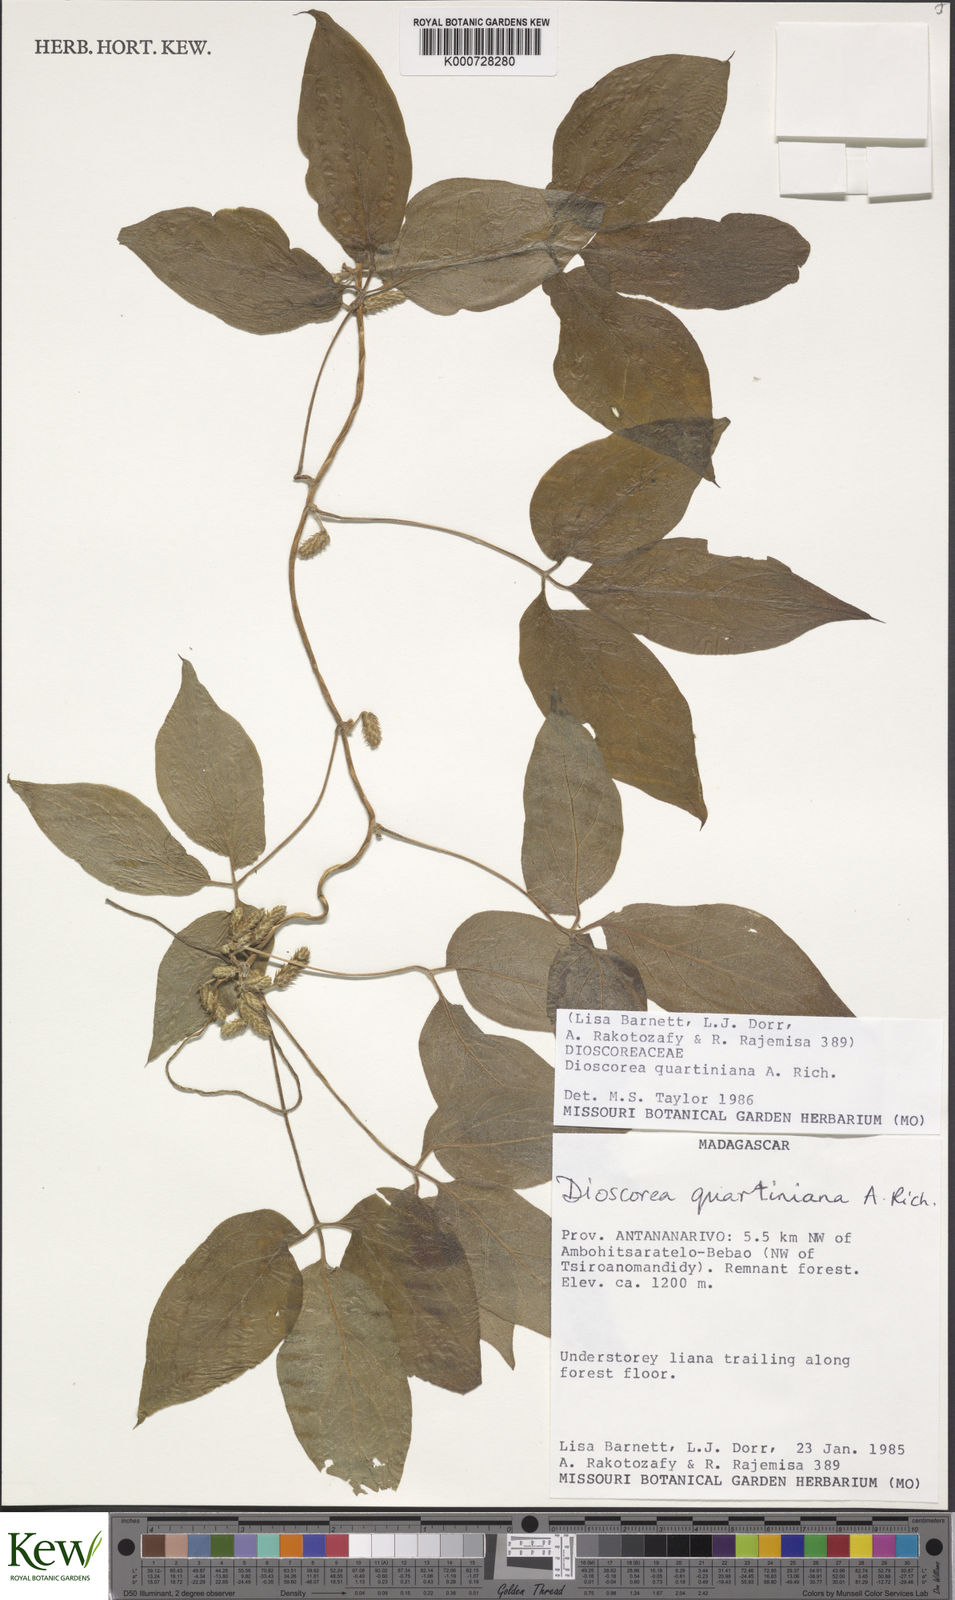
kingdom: Plantae
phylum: Tracheophyta
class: Liliopsida
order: Dioscoreales
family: Dioscoreaceae
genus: Dioscorea
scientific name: Dioscorea quartiniana
